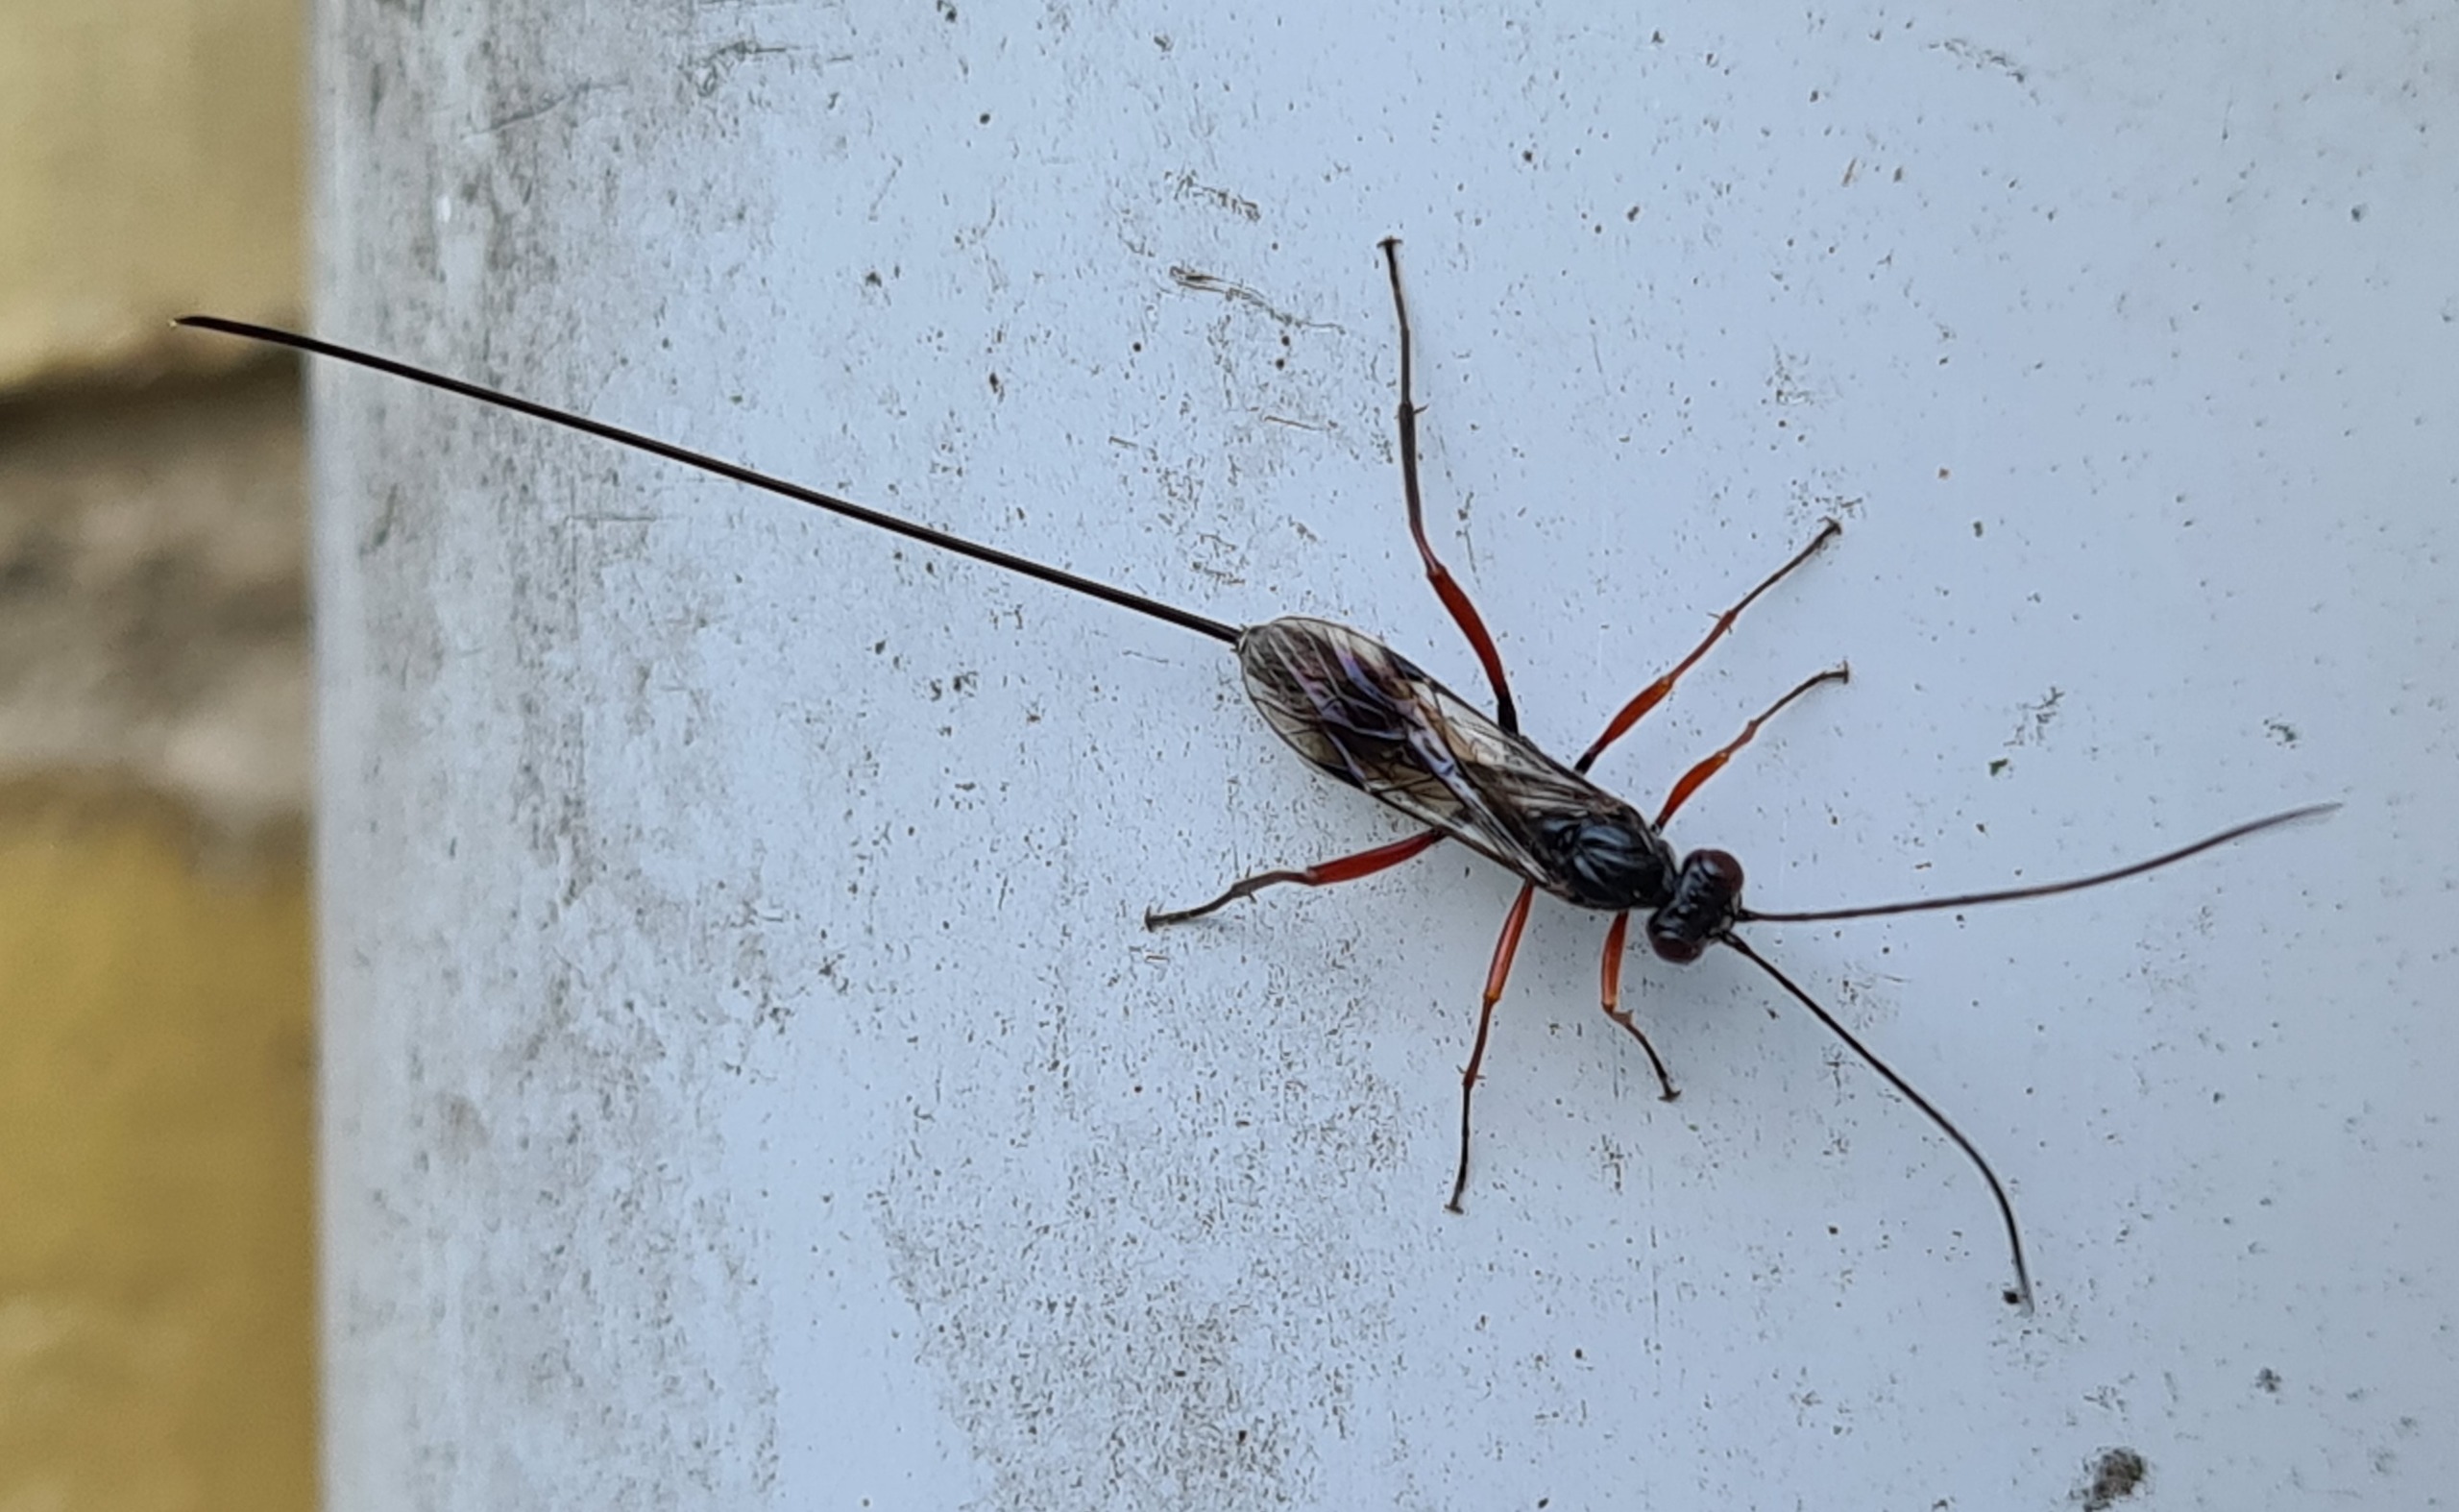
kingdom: Animalia
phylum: Arthropoda
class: Insecta
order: Hymenoptera
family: Ichneumonidae
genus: Stenarella
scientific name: Stenarella domator
